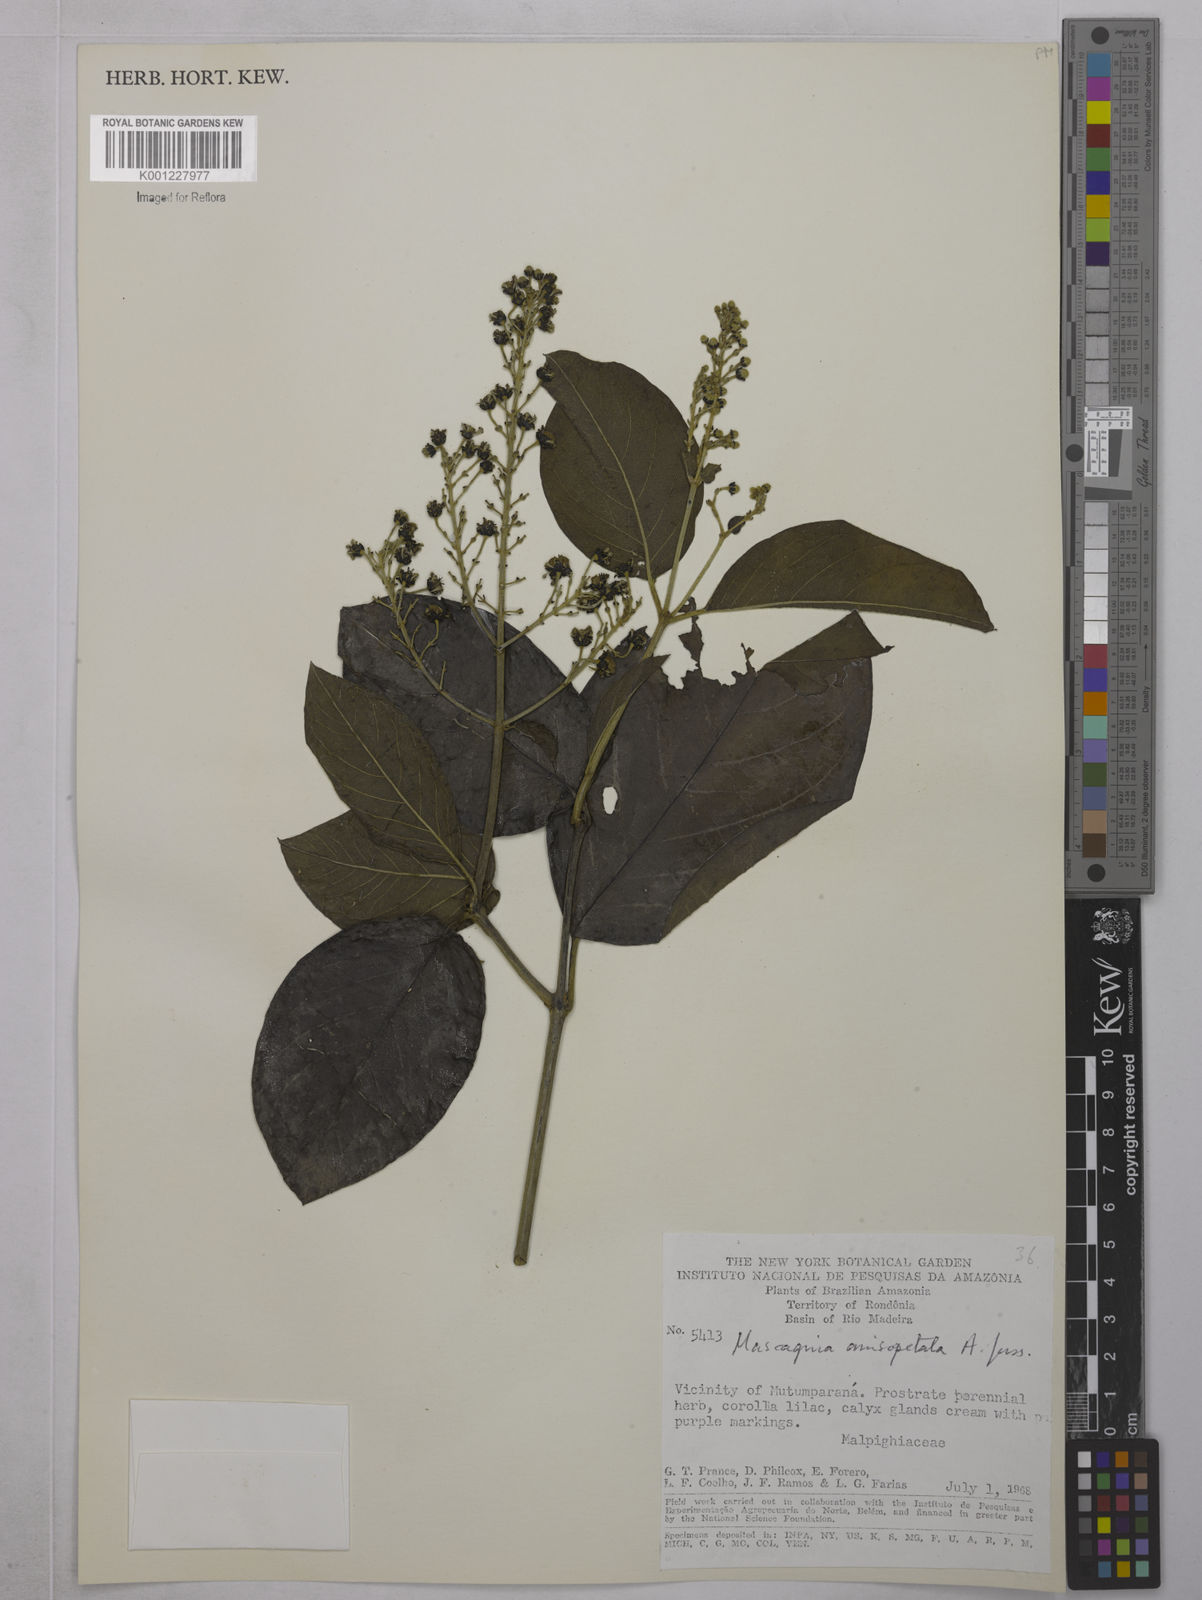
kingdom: Plantae
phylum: Tracheophyta
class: Magnoliopsida
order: Malpighiales
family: Malpighiaceae
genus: Alicia
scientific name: Alicia anisopetala
